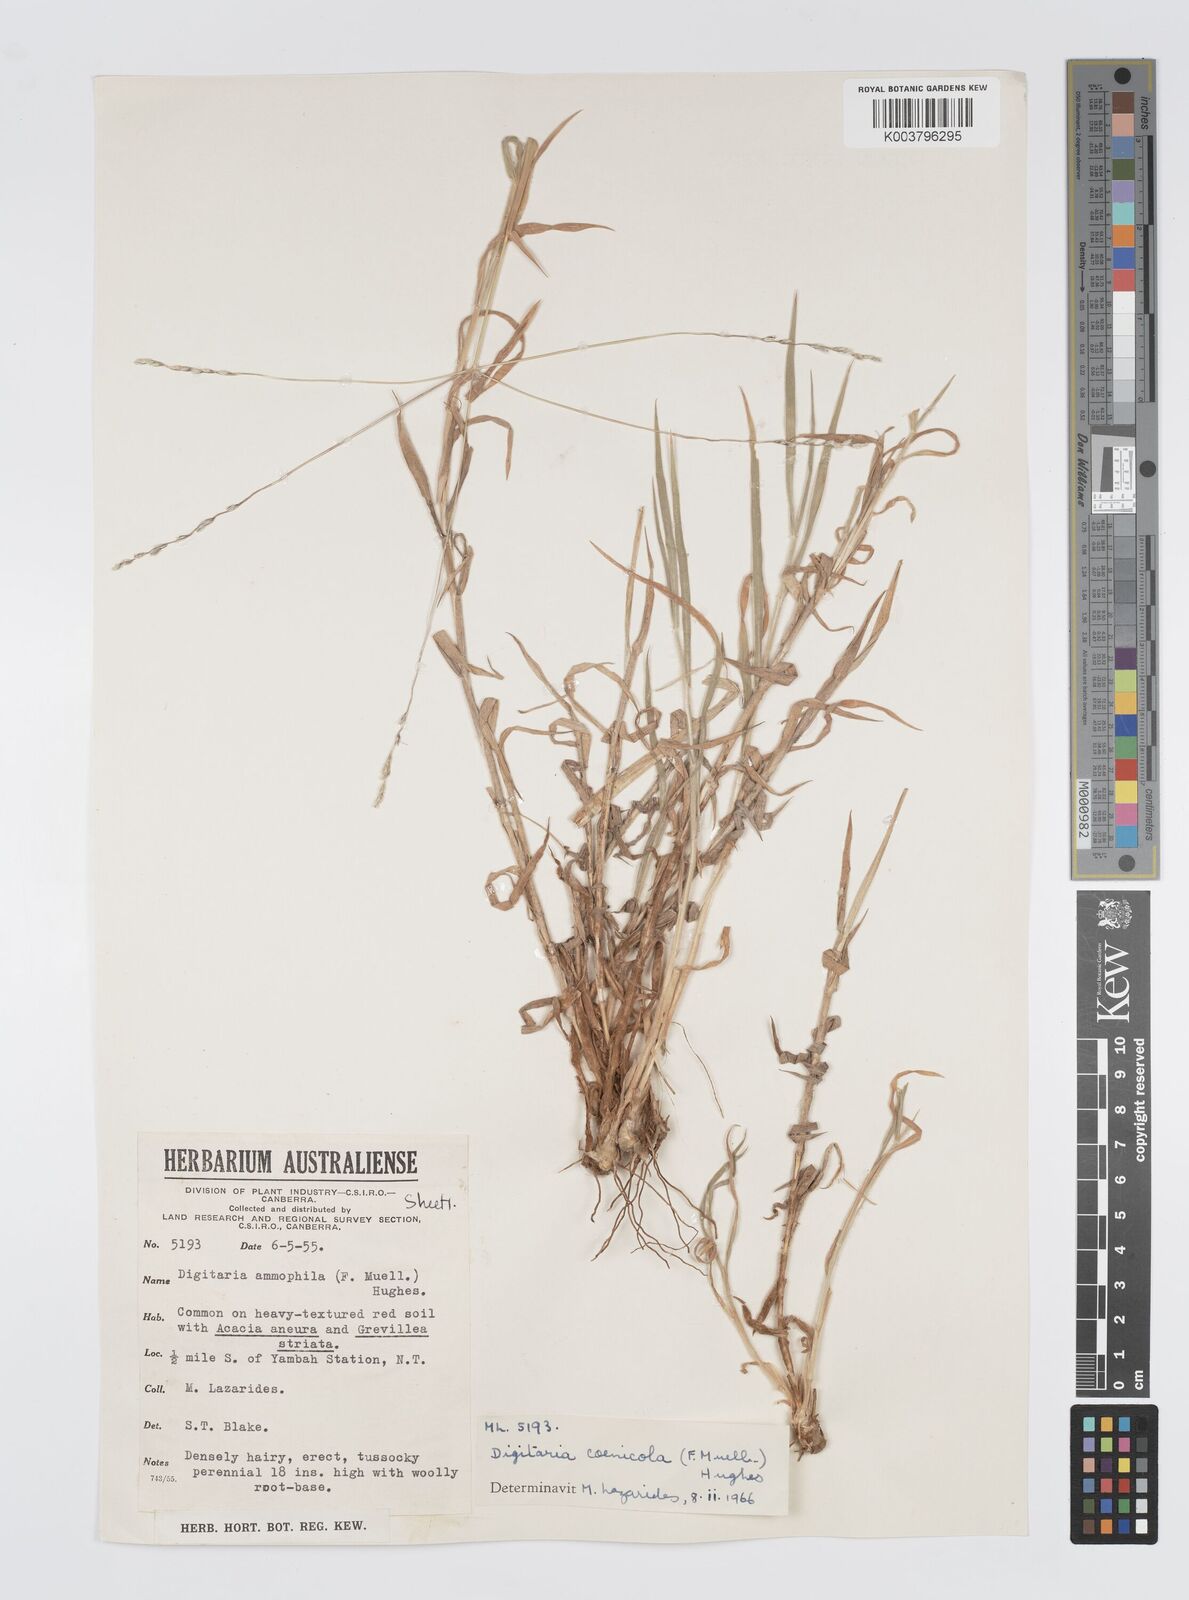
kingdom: Plantae
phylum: Tracheophyta
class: Liliopsida
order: Poales
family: Poaceae
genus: Digitaria
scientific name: Digitaria coenicola
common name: Kanta grass
